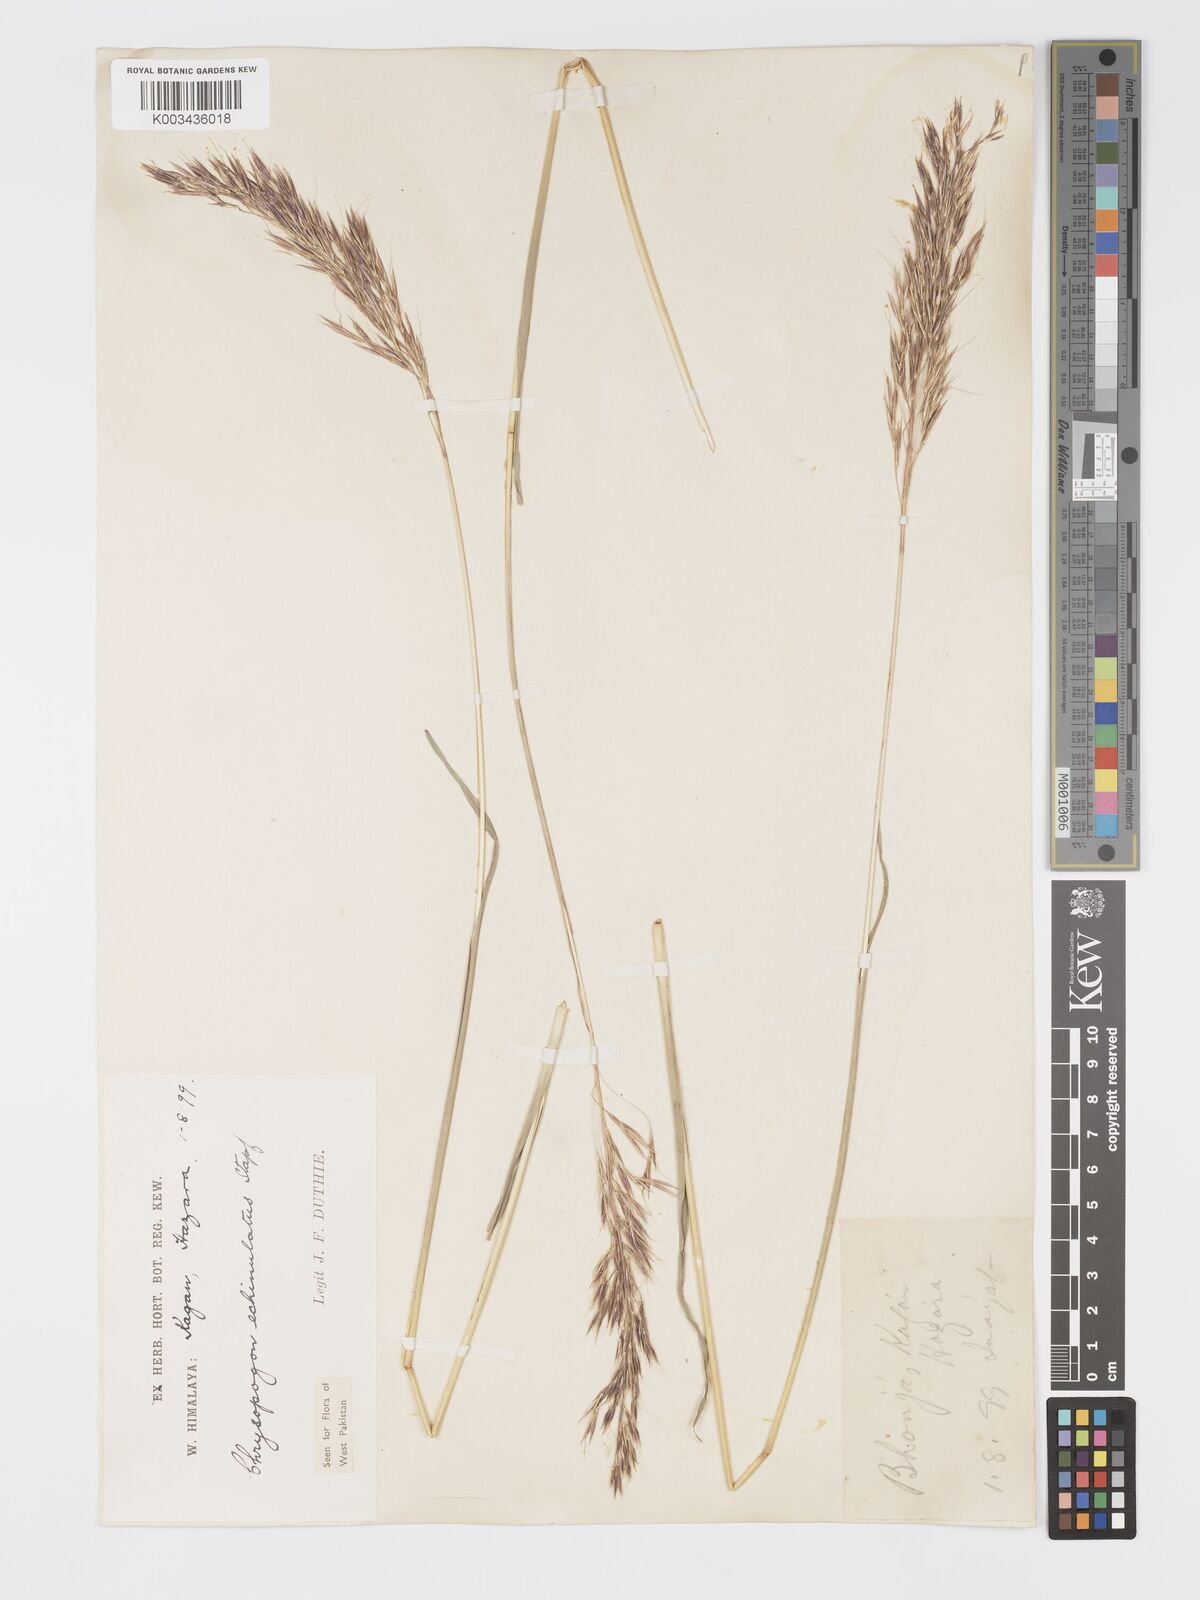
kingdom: Plantae
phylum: Tracheophyta
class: Liliopsida
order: Poales
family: Poaceae
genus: Chrysopogon
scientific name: Chrysopogon gryllus
